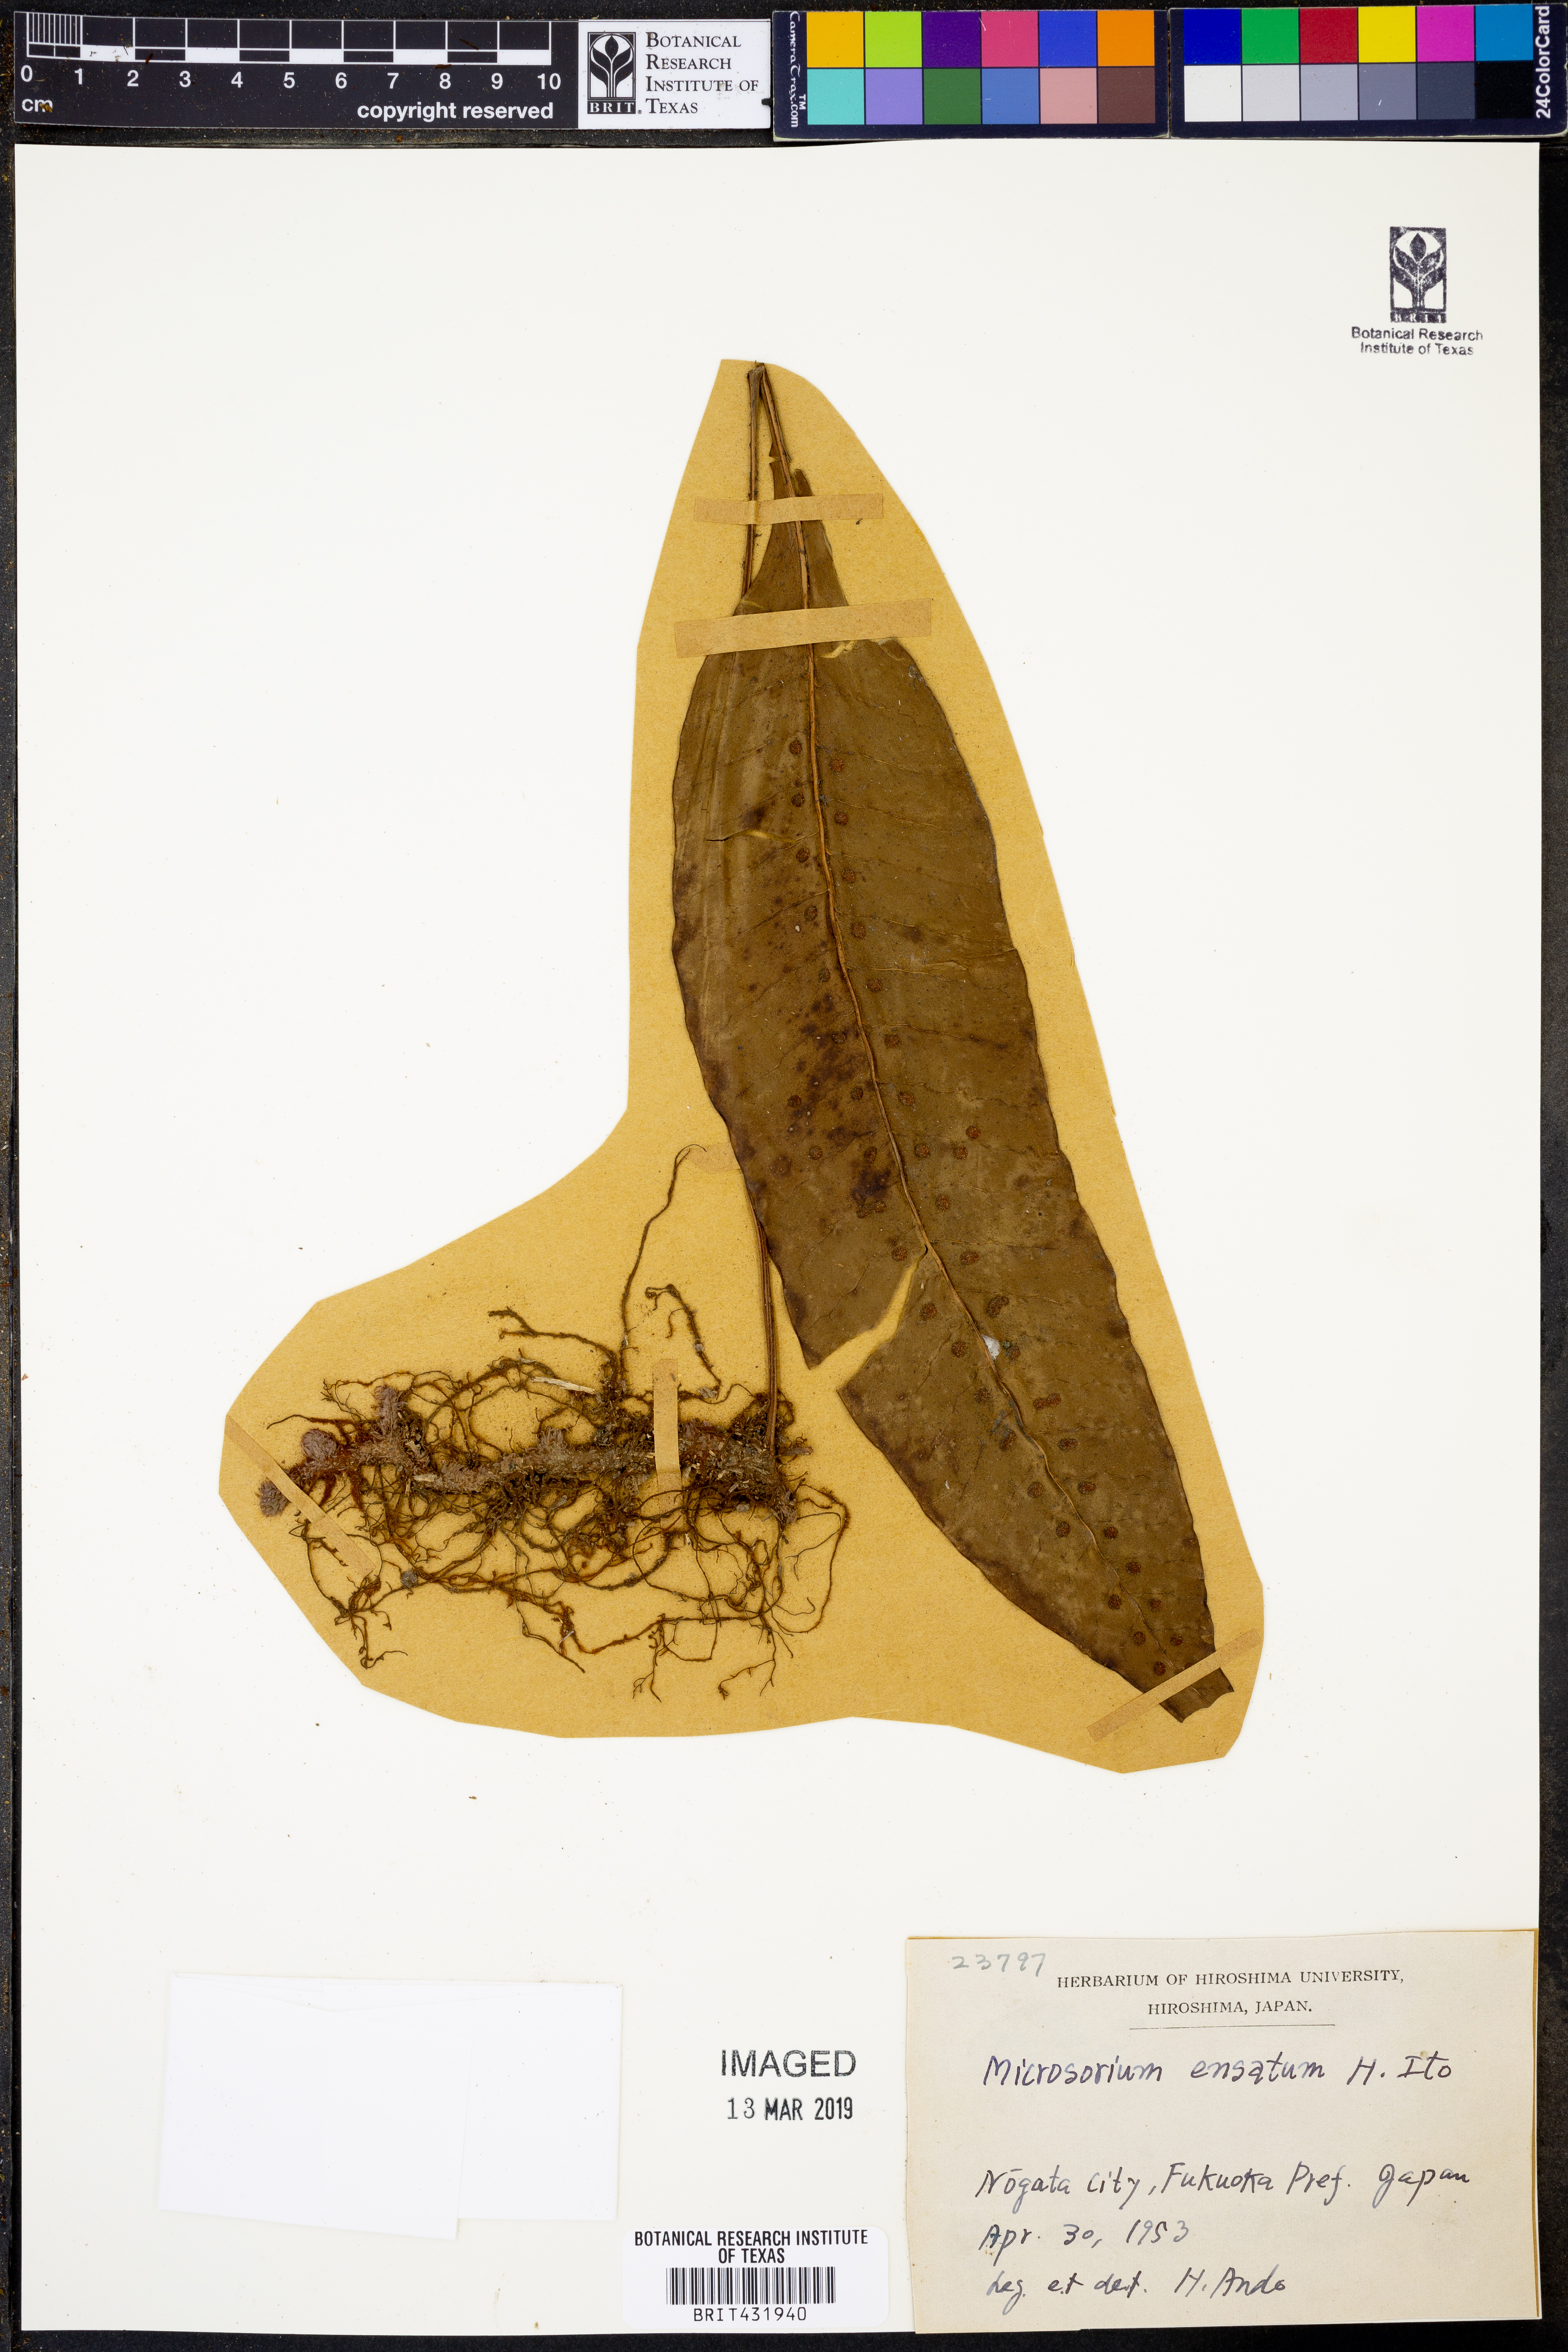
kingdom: Plantae
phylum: Tracheophyta
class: Polypodiopsida
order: Polypodiales
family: Polypodiaceae
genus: Lepisorus
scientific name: Lepisorus ensatus
